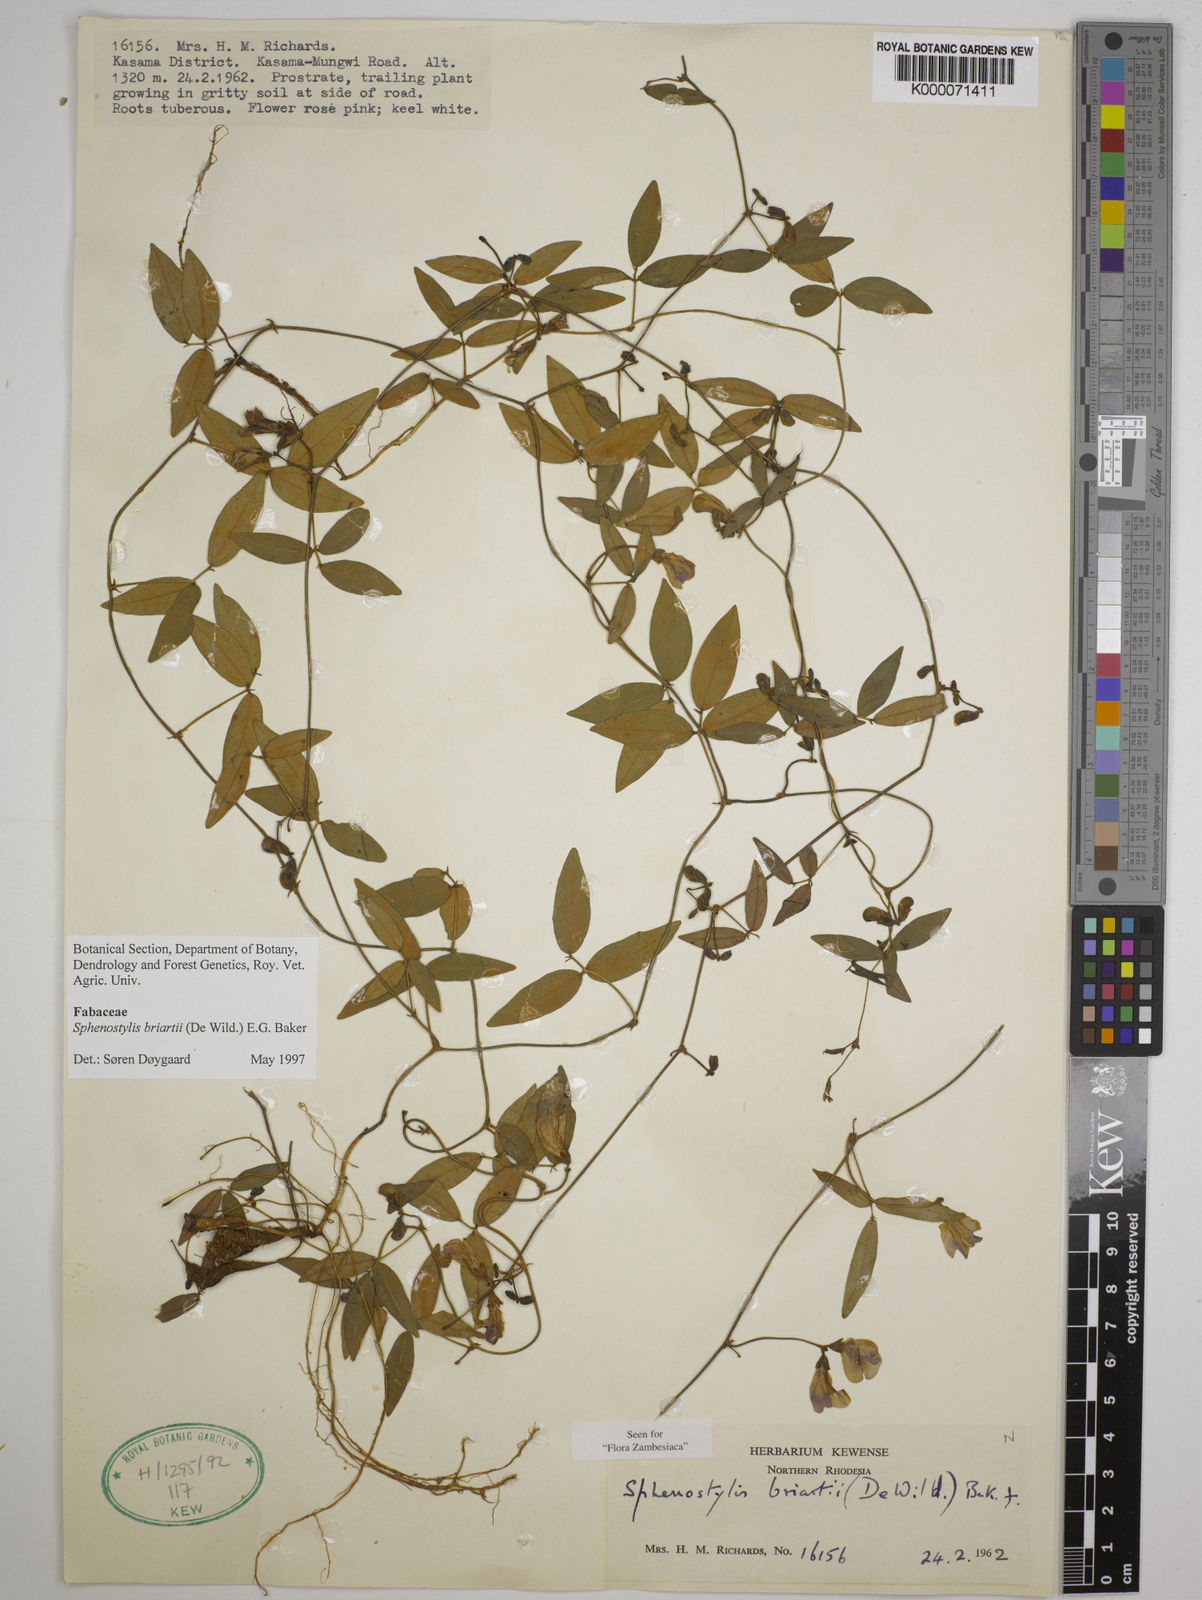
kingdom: Plantae
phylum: Tracheophyta
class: Magnoliopsida
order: Fabales
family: Fabaceae
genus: Sphenostylis
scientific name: Sphenostylis briartii
